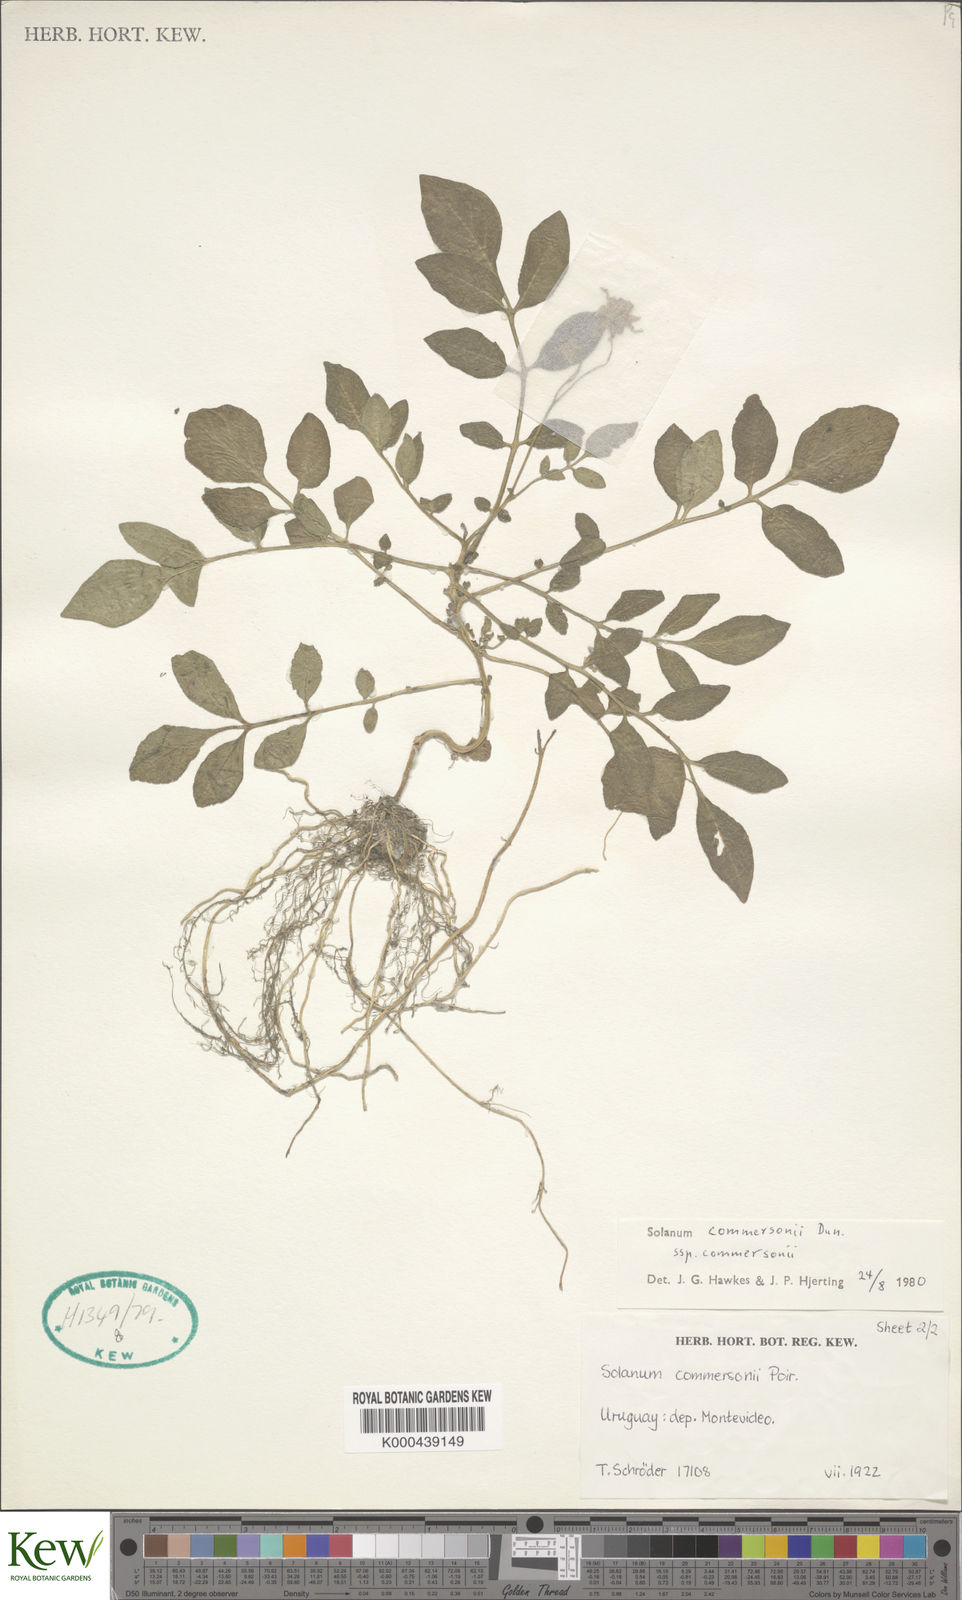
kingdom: Plantae
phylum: Tracheophyta
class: Magnoliopsida
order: Solanales
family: Solanaceae
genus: Solanum
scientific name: Solanum commersonii
